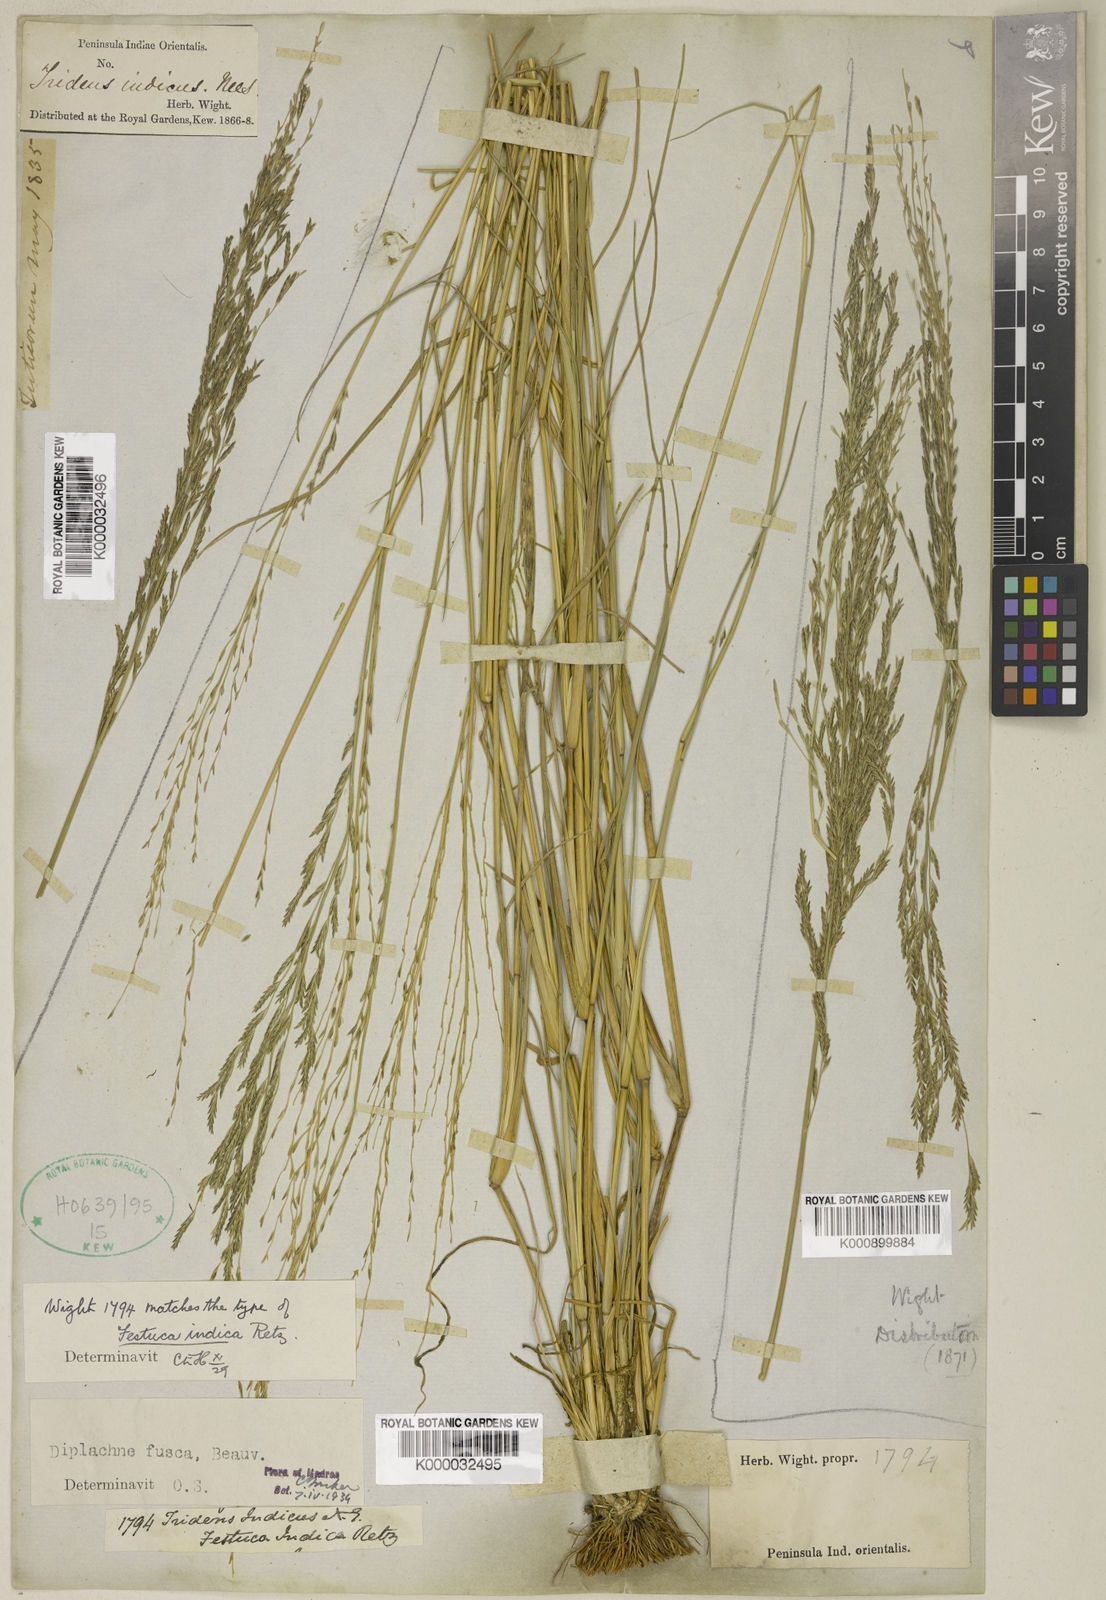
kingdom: Plantae
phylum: Tracheophyta
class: Liliopsida
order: Poales
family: Poaceae
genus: Diplachne
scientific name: Diplachne fusca
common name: Brown beetle grass
